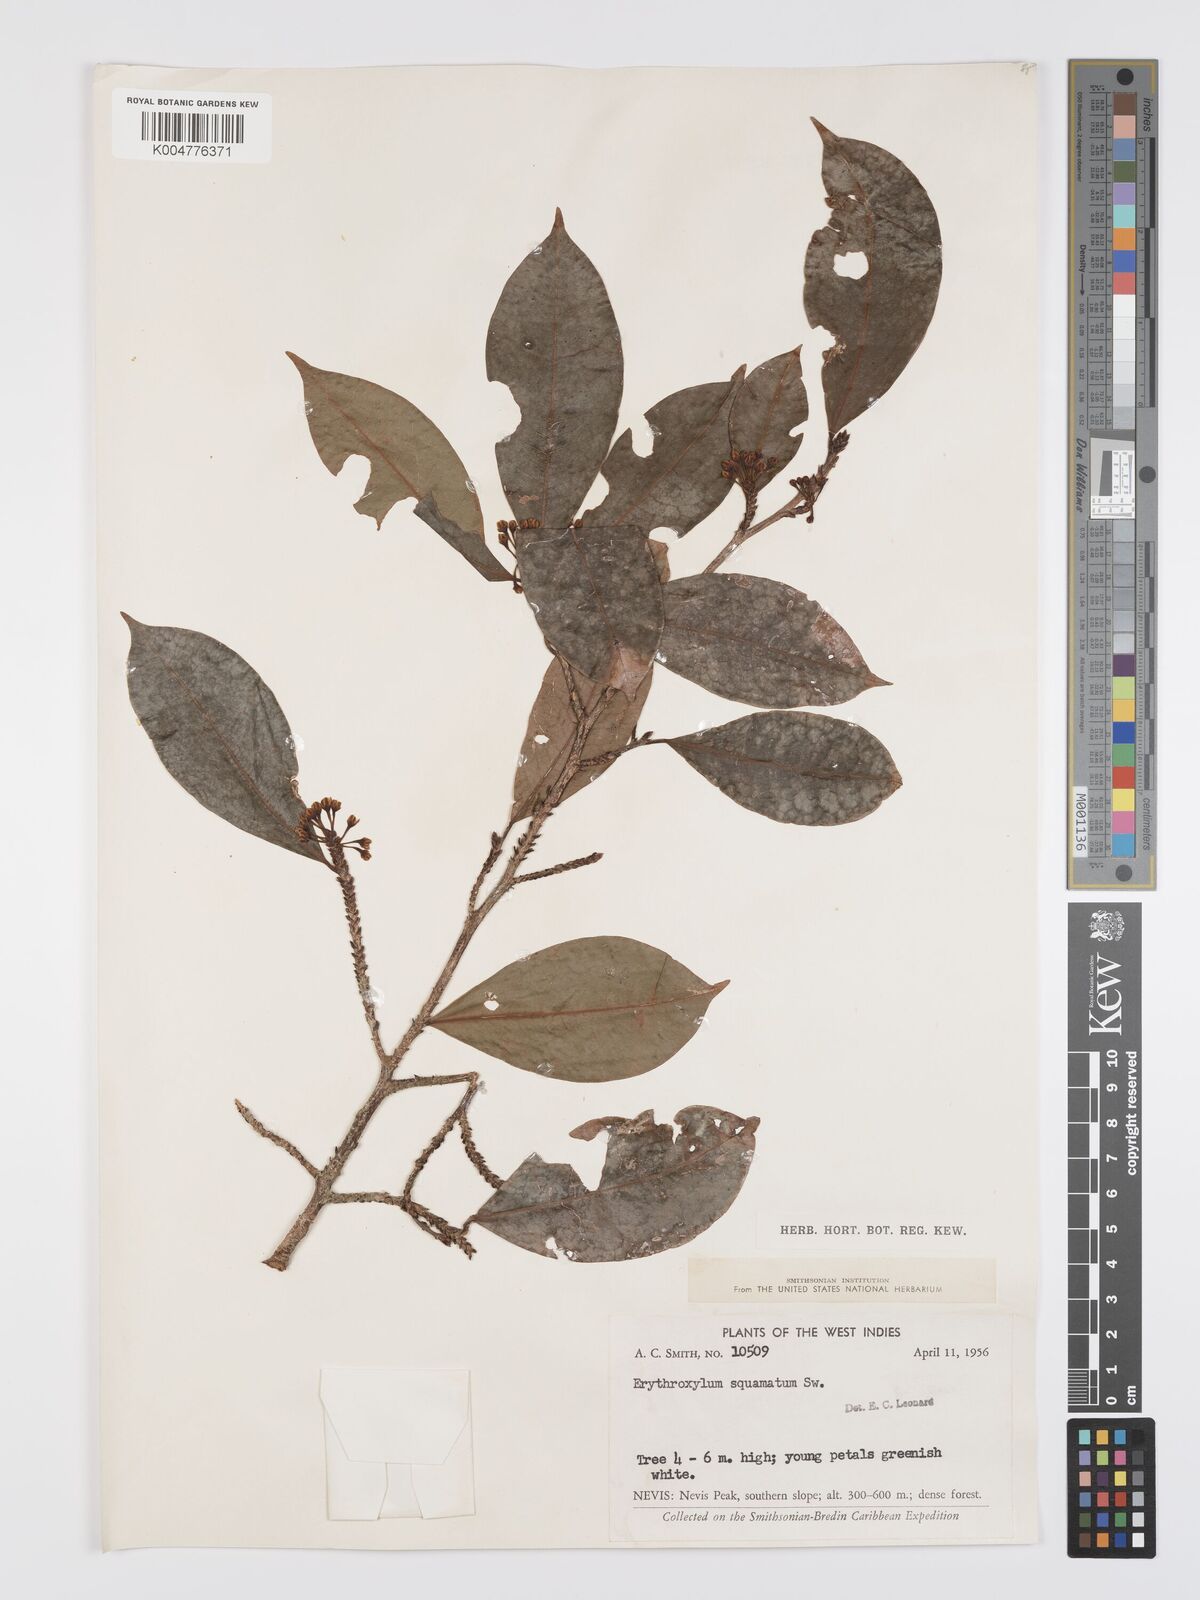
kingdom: Plantae
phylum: Tracheophyta
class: Magnoliopsida
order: Malpighiales
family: Erythroxylaceae
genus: Erythroxylum
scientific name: Erythroxylum squamatum
